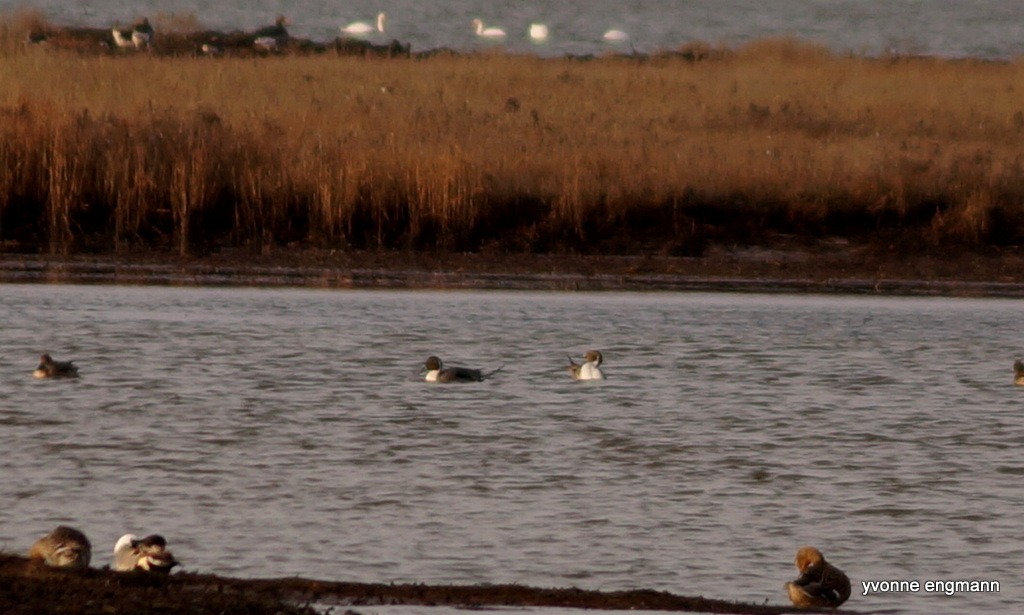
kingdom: Animalia
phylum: Chordata
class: Aves
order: Anseriformes
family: Anatidae
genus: Anas
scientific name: Anas acuta
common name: Spidsand
